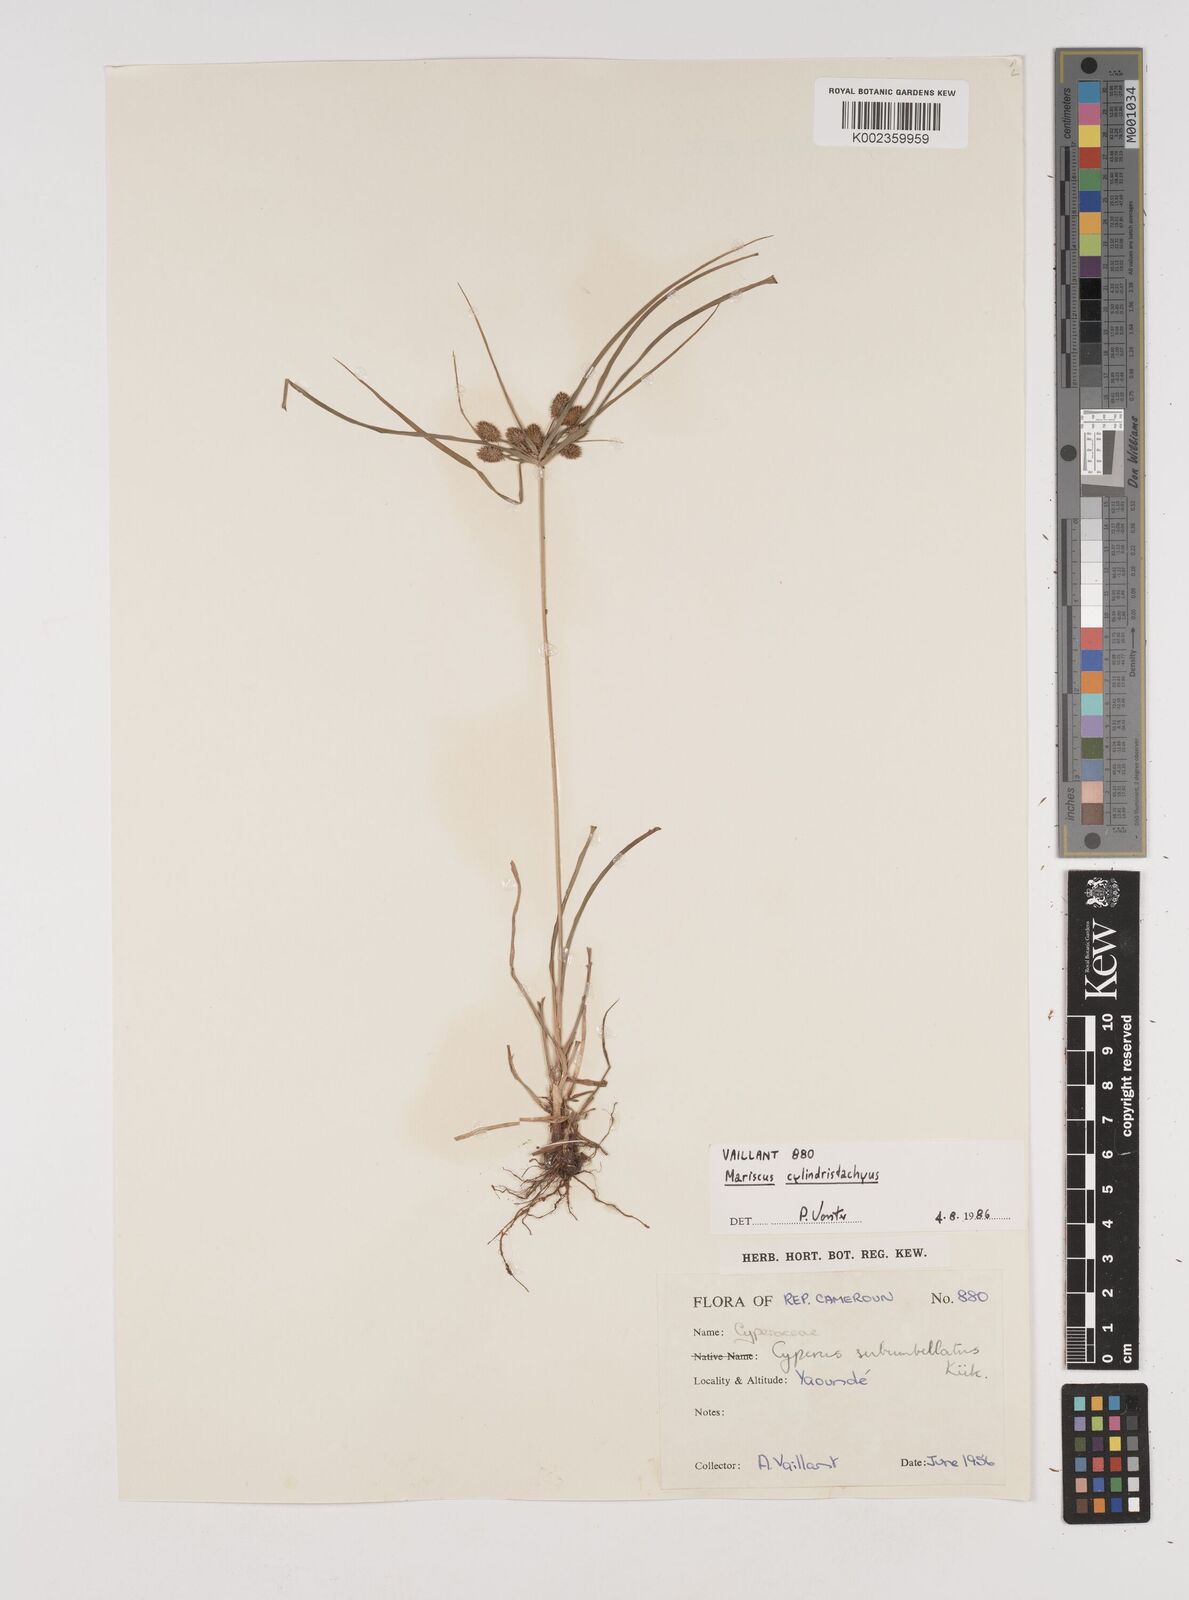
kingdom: Plantae
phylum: Tracheophyta
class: Liliopsida
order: Poales
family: Cyperaceae
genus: Cyperus
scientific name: Cyperus cyperoides
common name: Pacific island flat sedge
